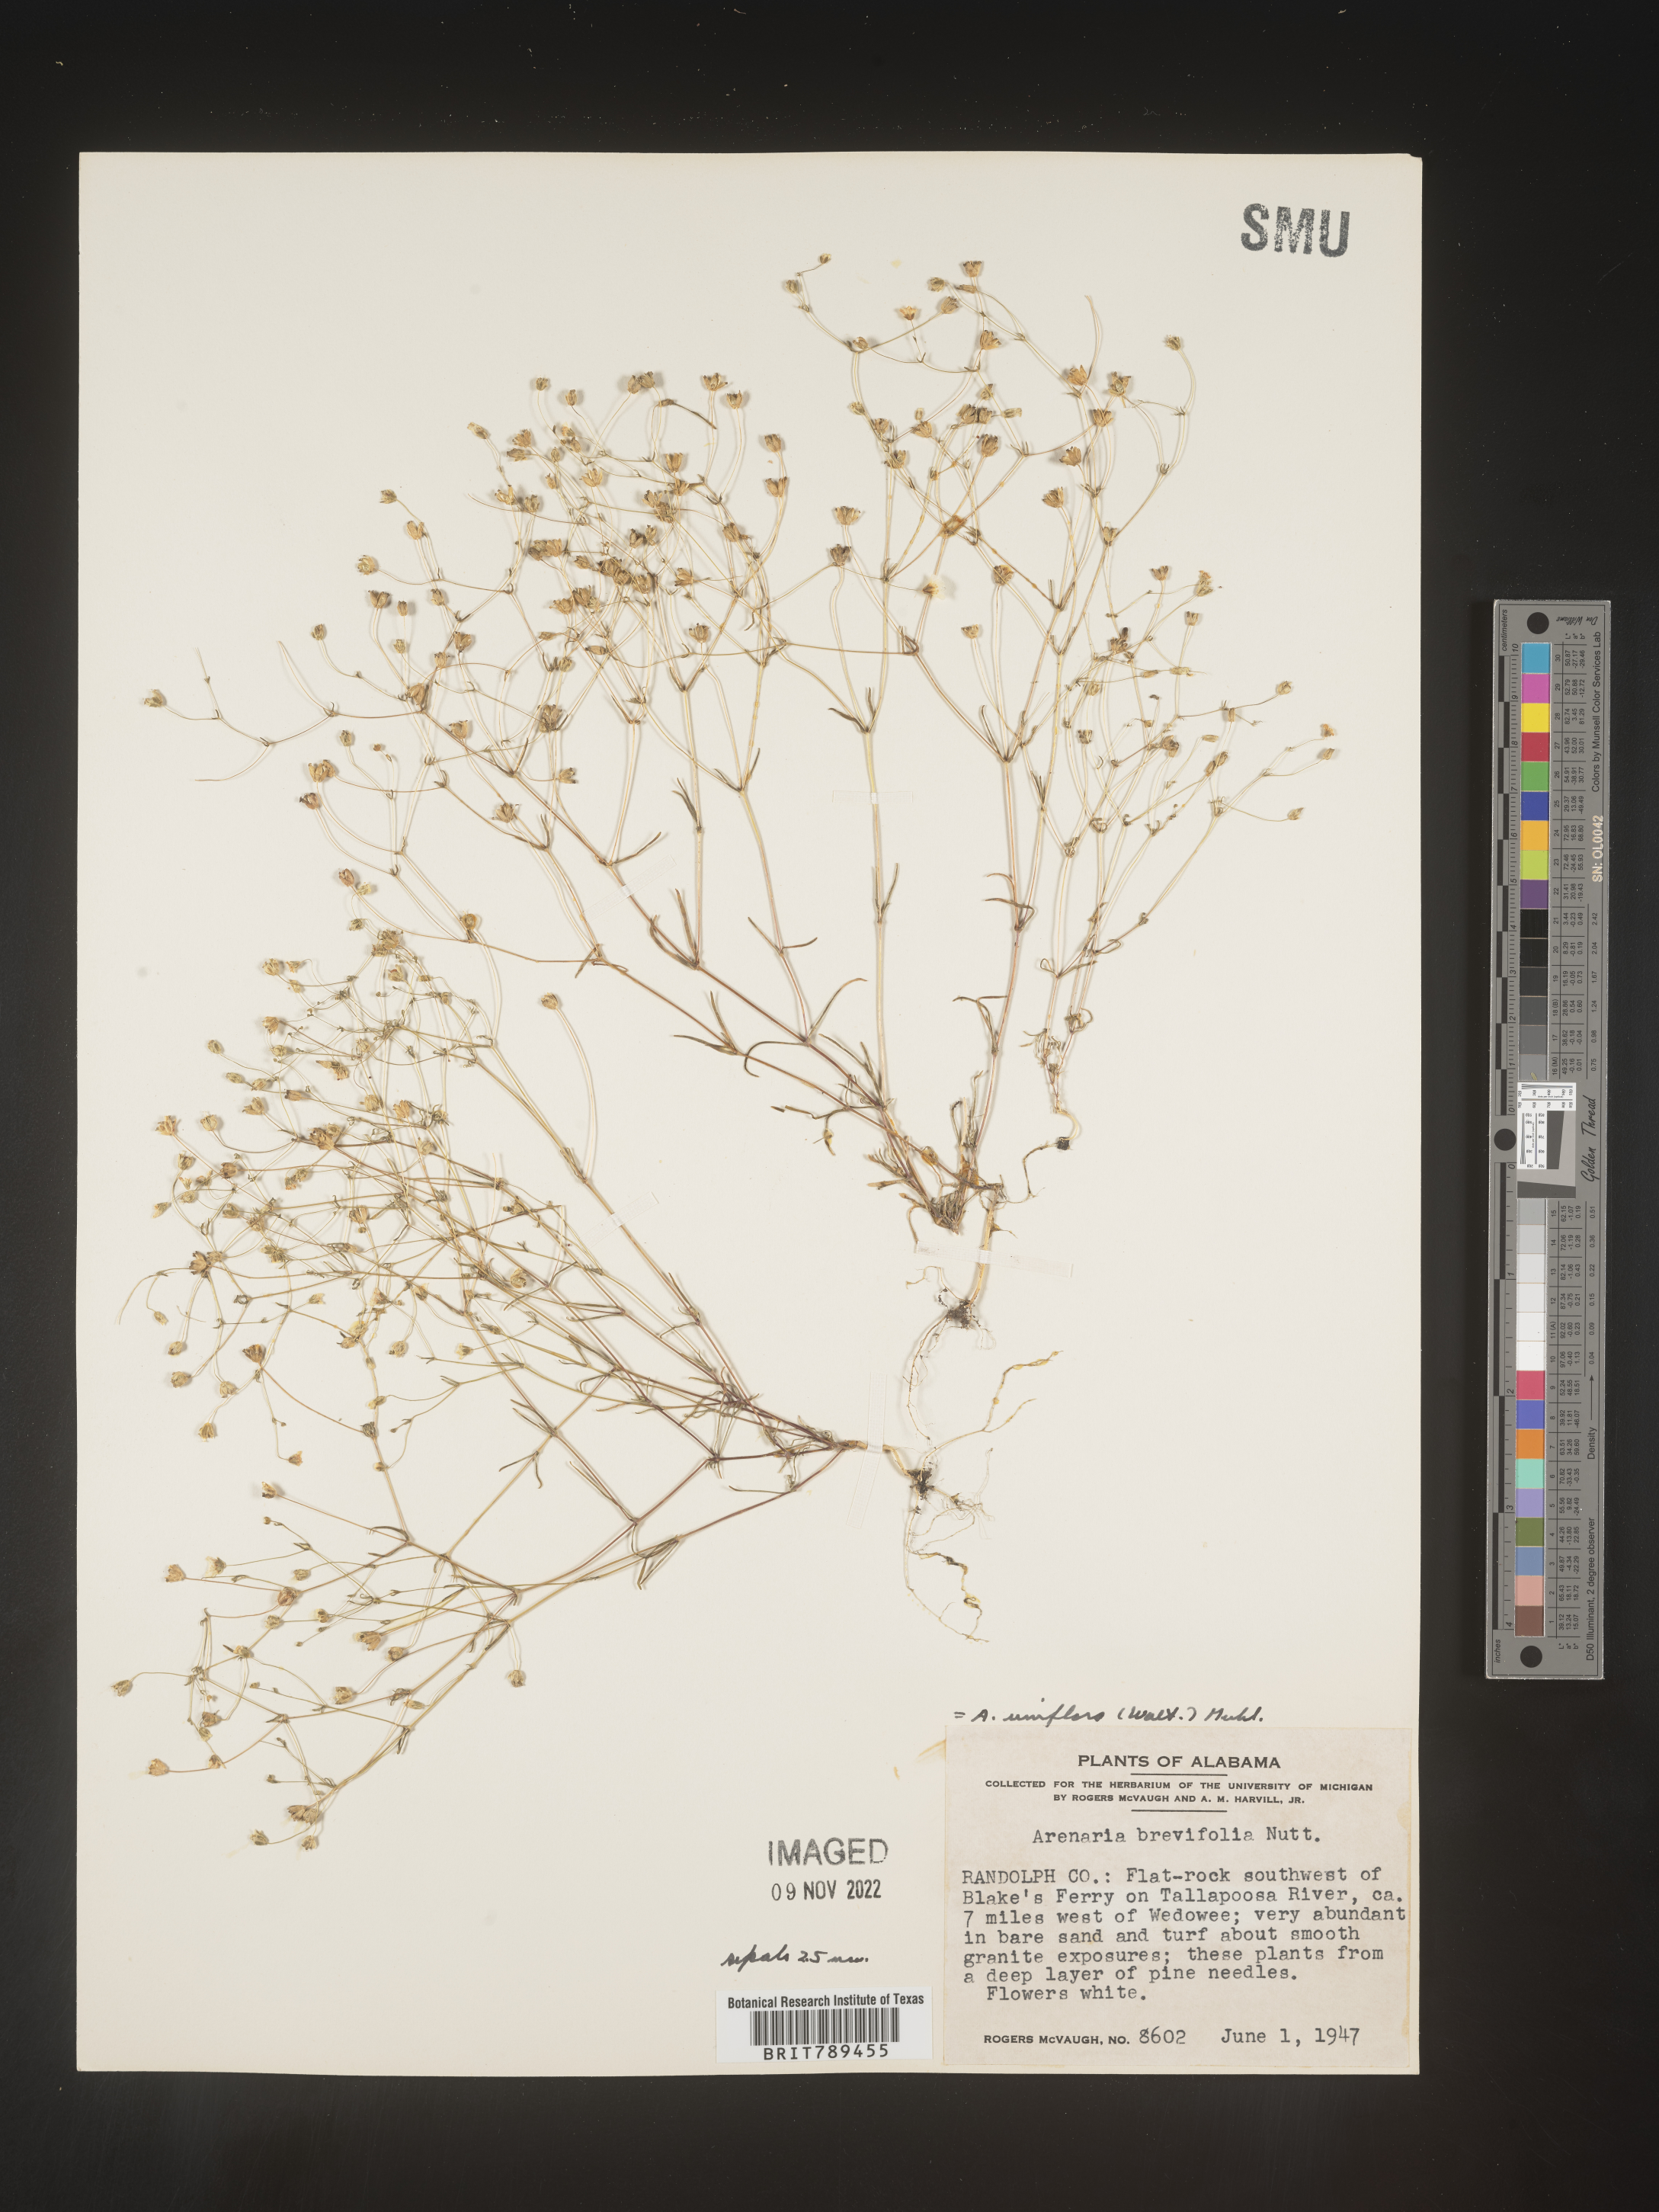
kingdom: Plantae
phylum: Tracheophyta
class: Magnoliopsida
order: Caryophyllales
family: Caryophyllaceae
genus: Arenaria
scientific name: Arenaria
